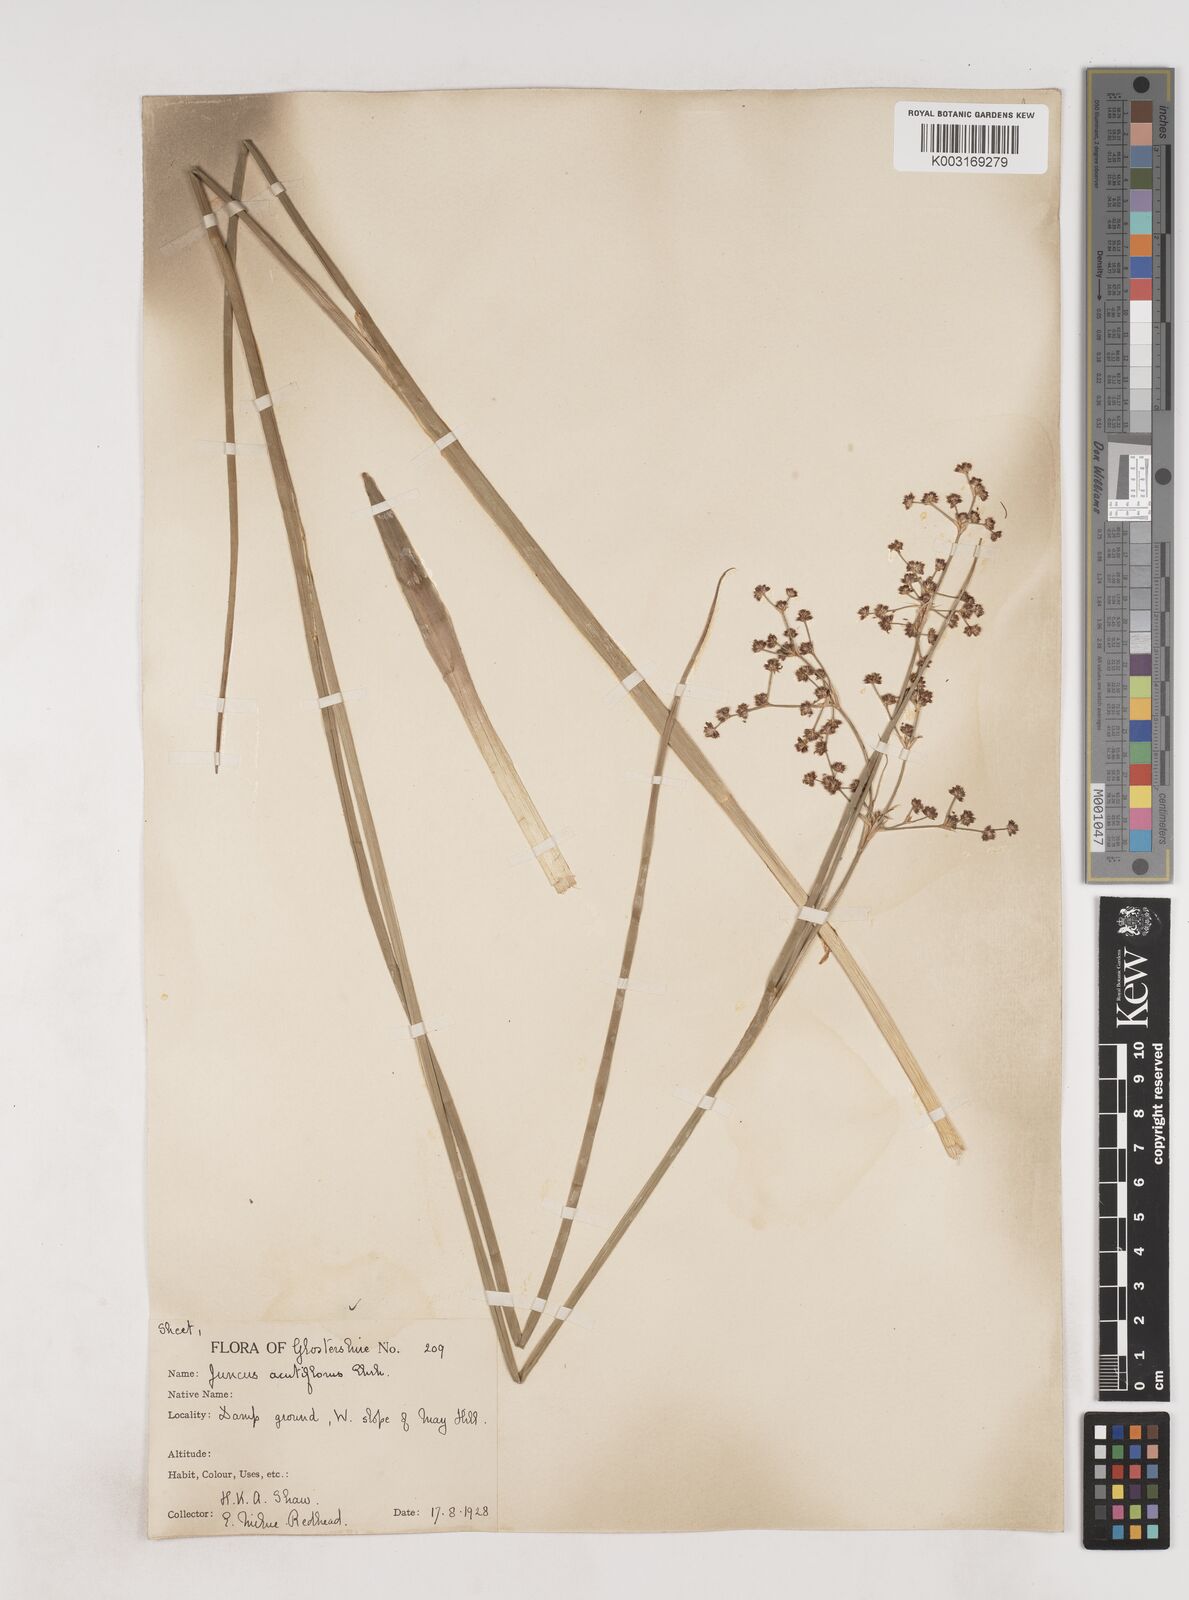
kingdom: Plantae
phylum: Tracheophyta
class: Liliopsida
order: Poales
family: Juncaceae
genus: Juncus
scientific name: Juncus acutiflorus
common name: Sharp-flowered rush
